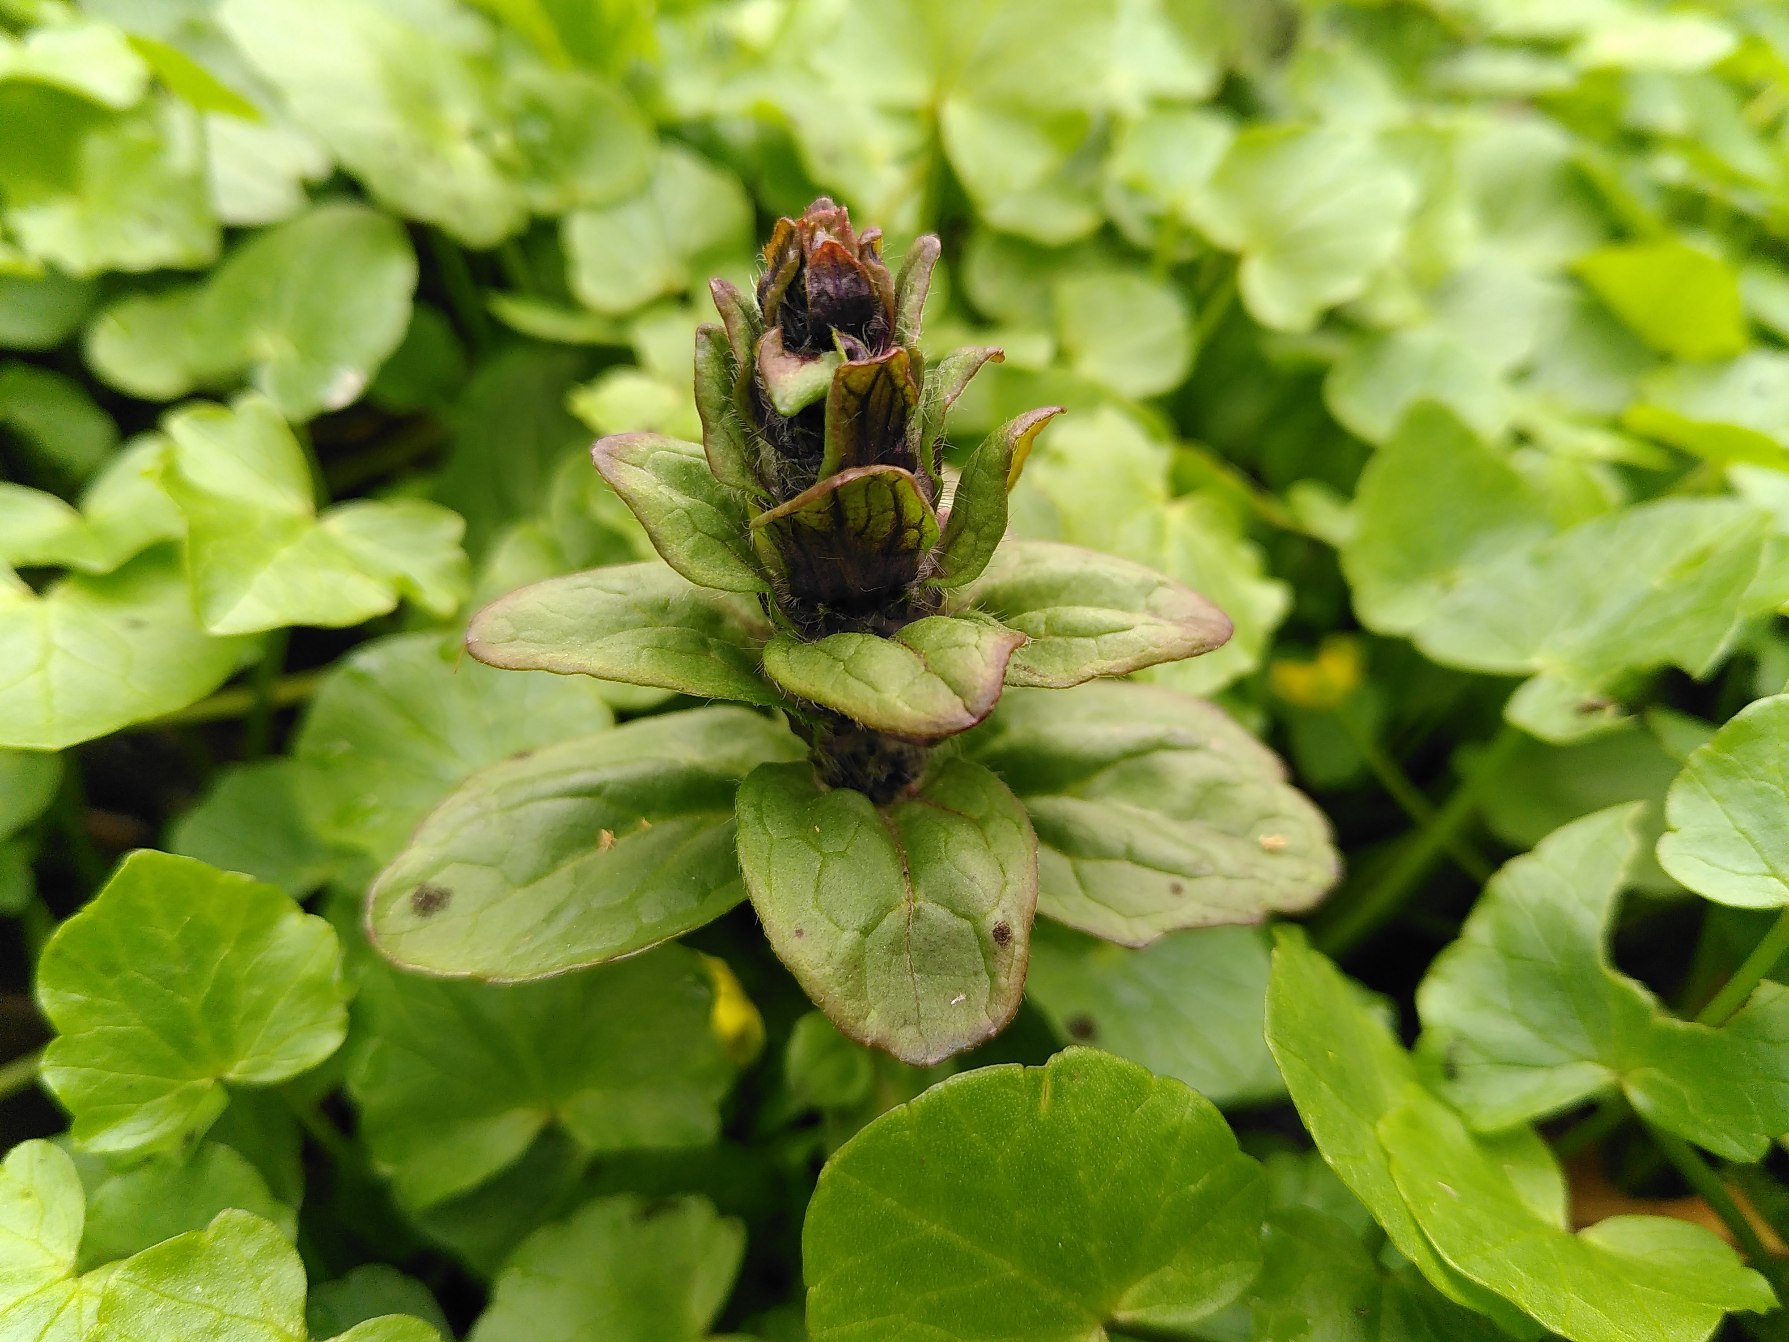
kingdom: Plantae
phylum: Tracheophyta
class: Magnoliopsida
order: Lamiales
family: Lamiaceae
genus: Ajuga
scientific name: Ajuga reptans
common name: Krybende læbeløs
